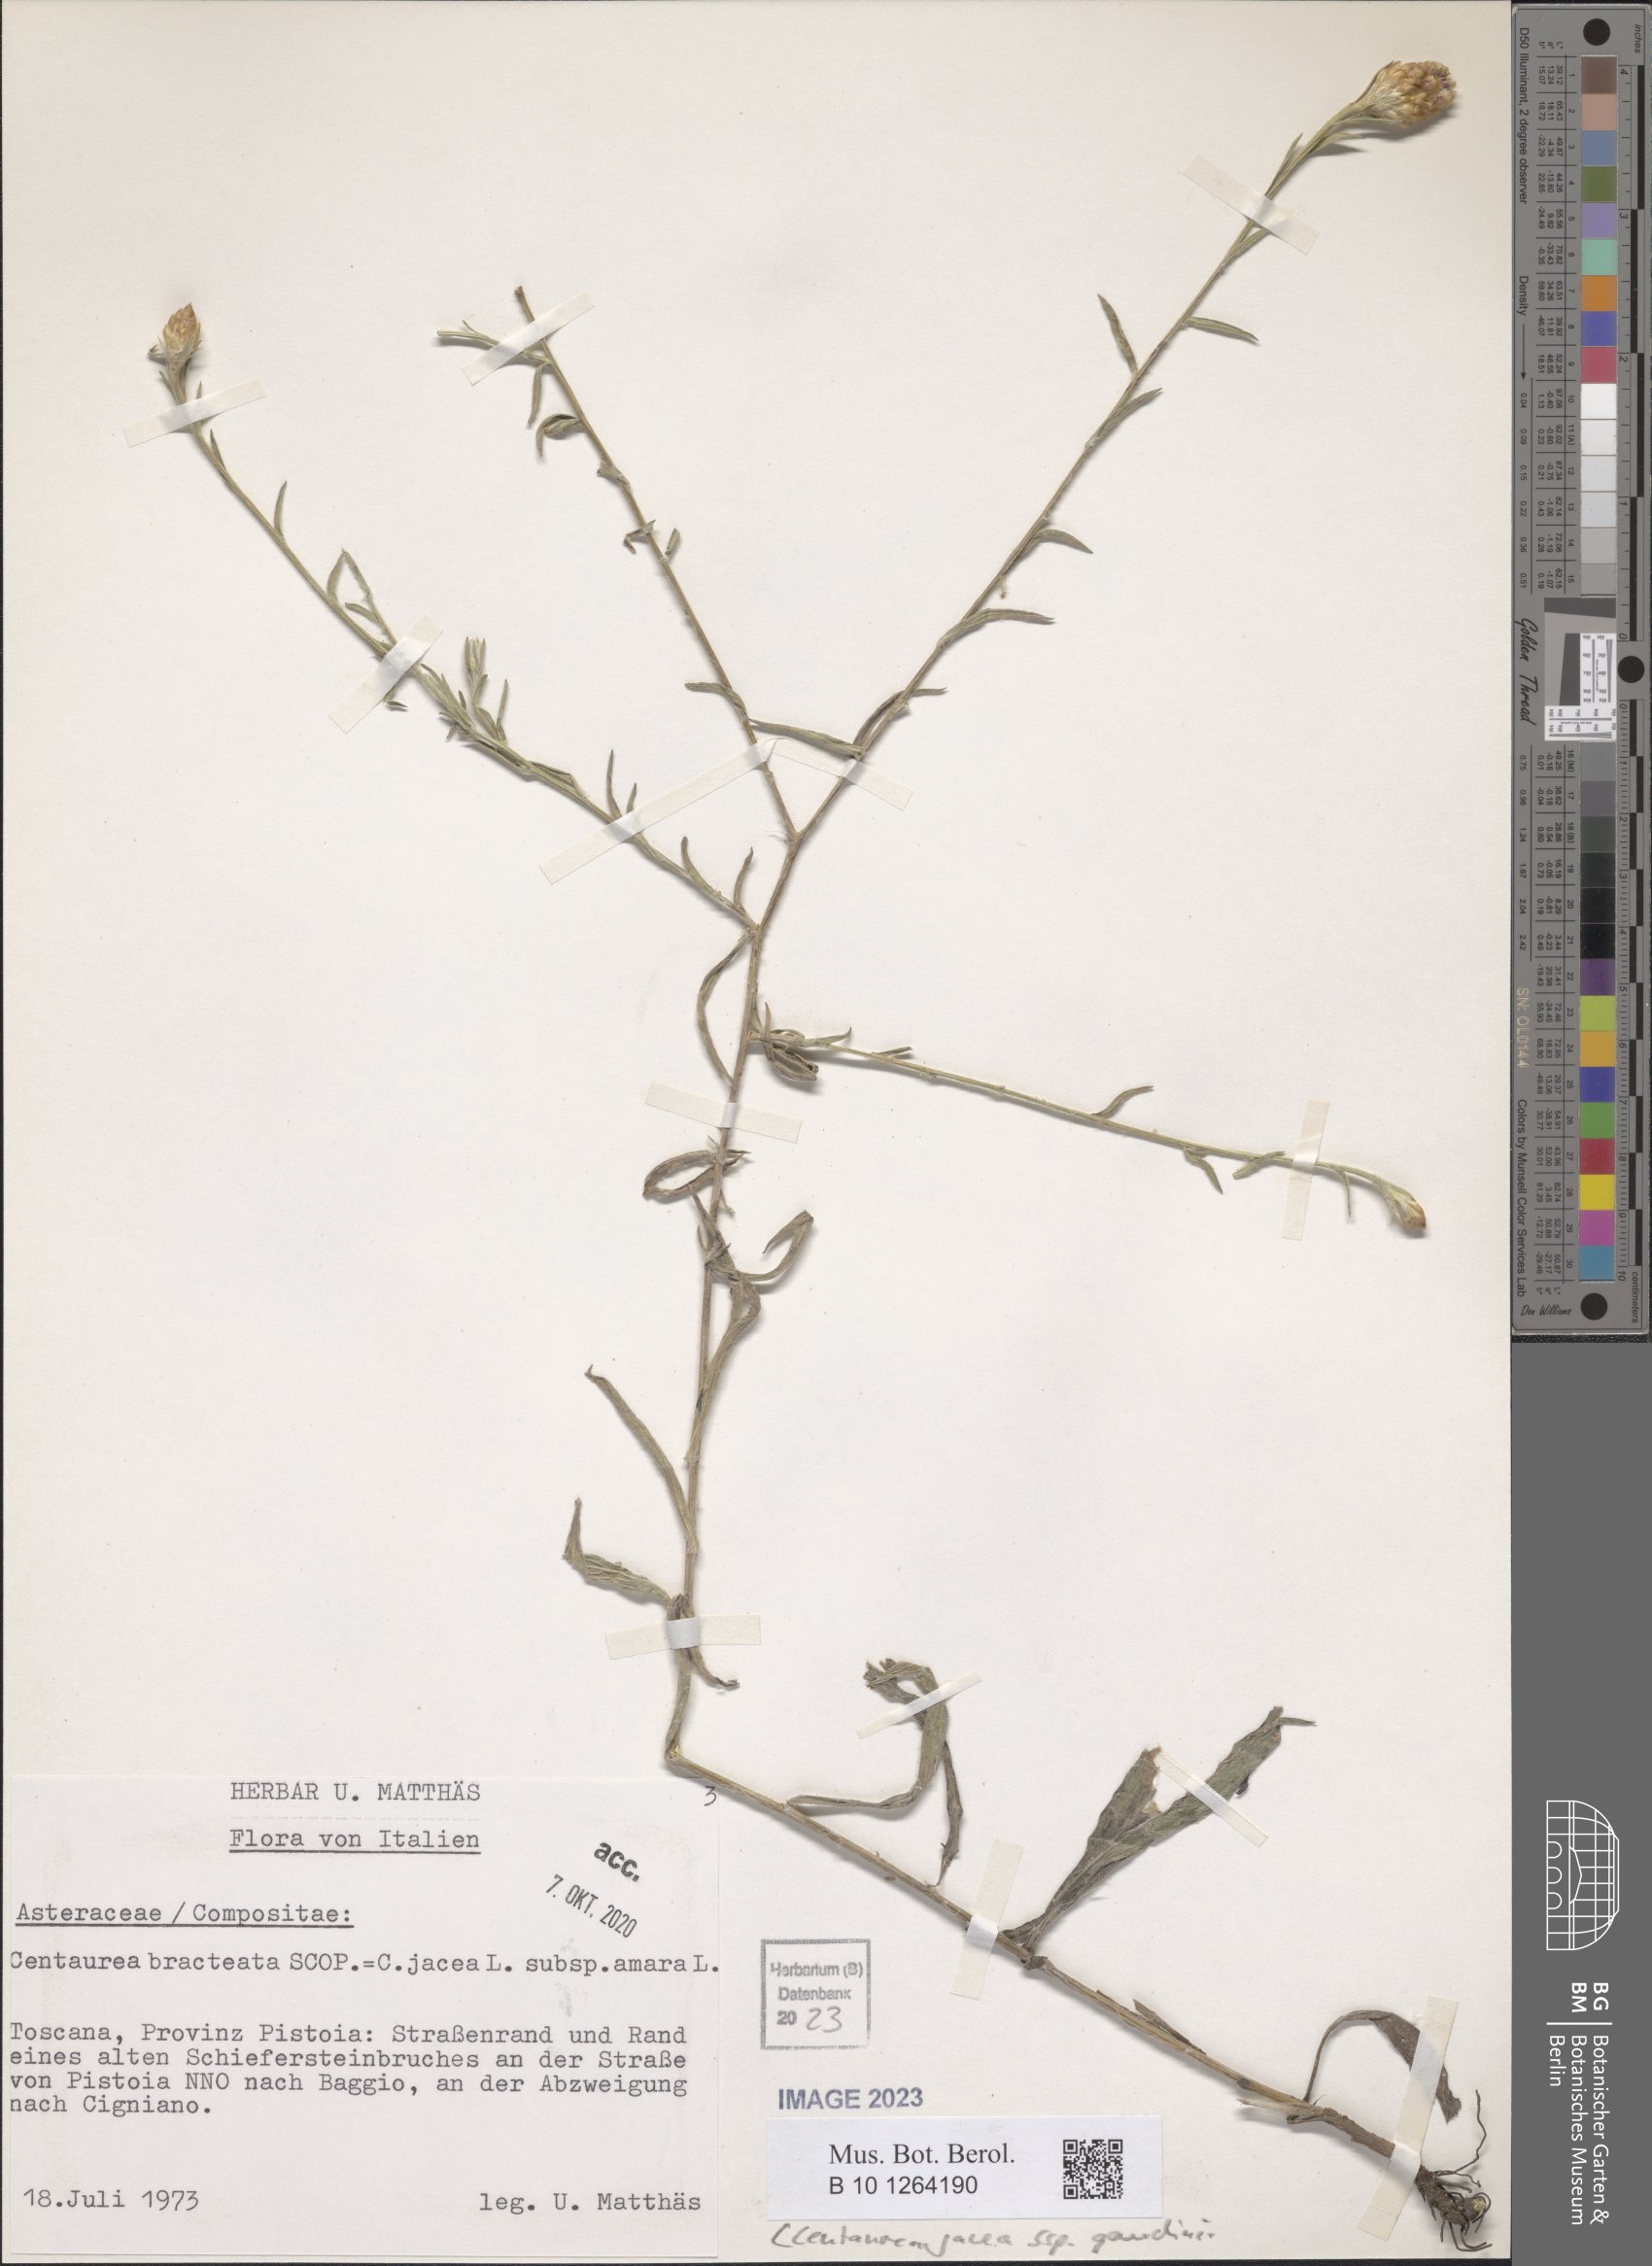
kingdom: Plantae
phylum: Tracheophyta
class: Magnoliopsida
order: Asterales
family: Asteraceae
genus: Centaurea
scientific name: Centaurea jacea
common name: Brown knapweed
